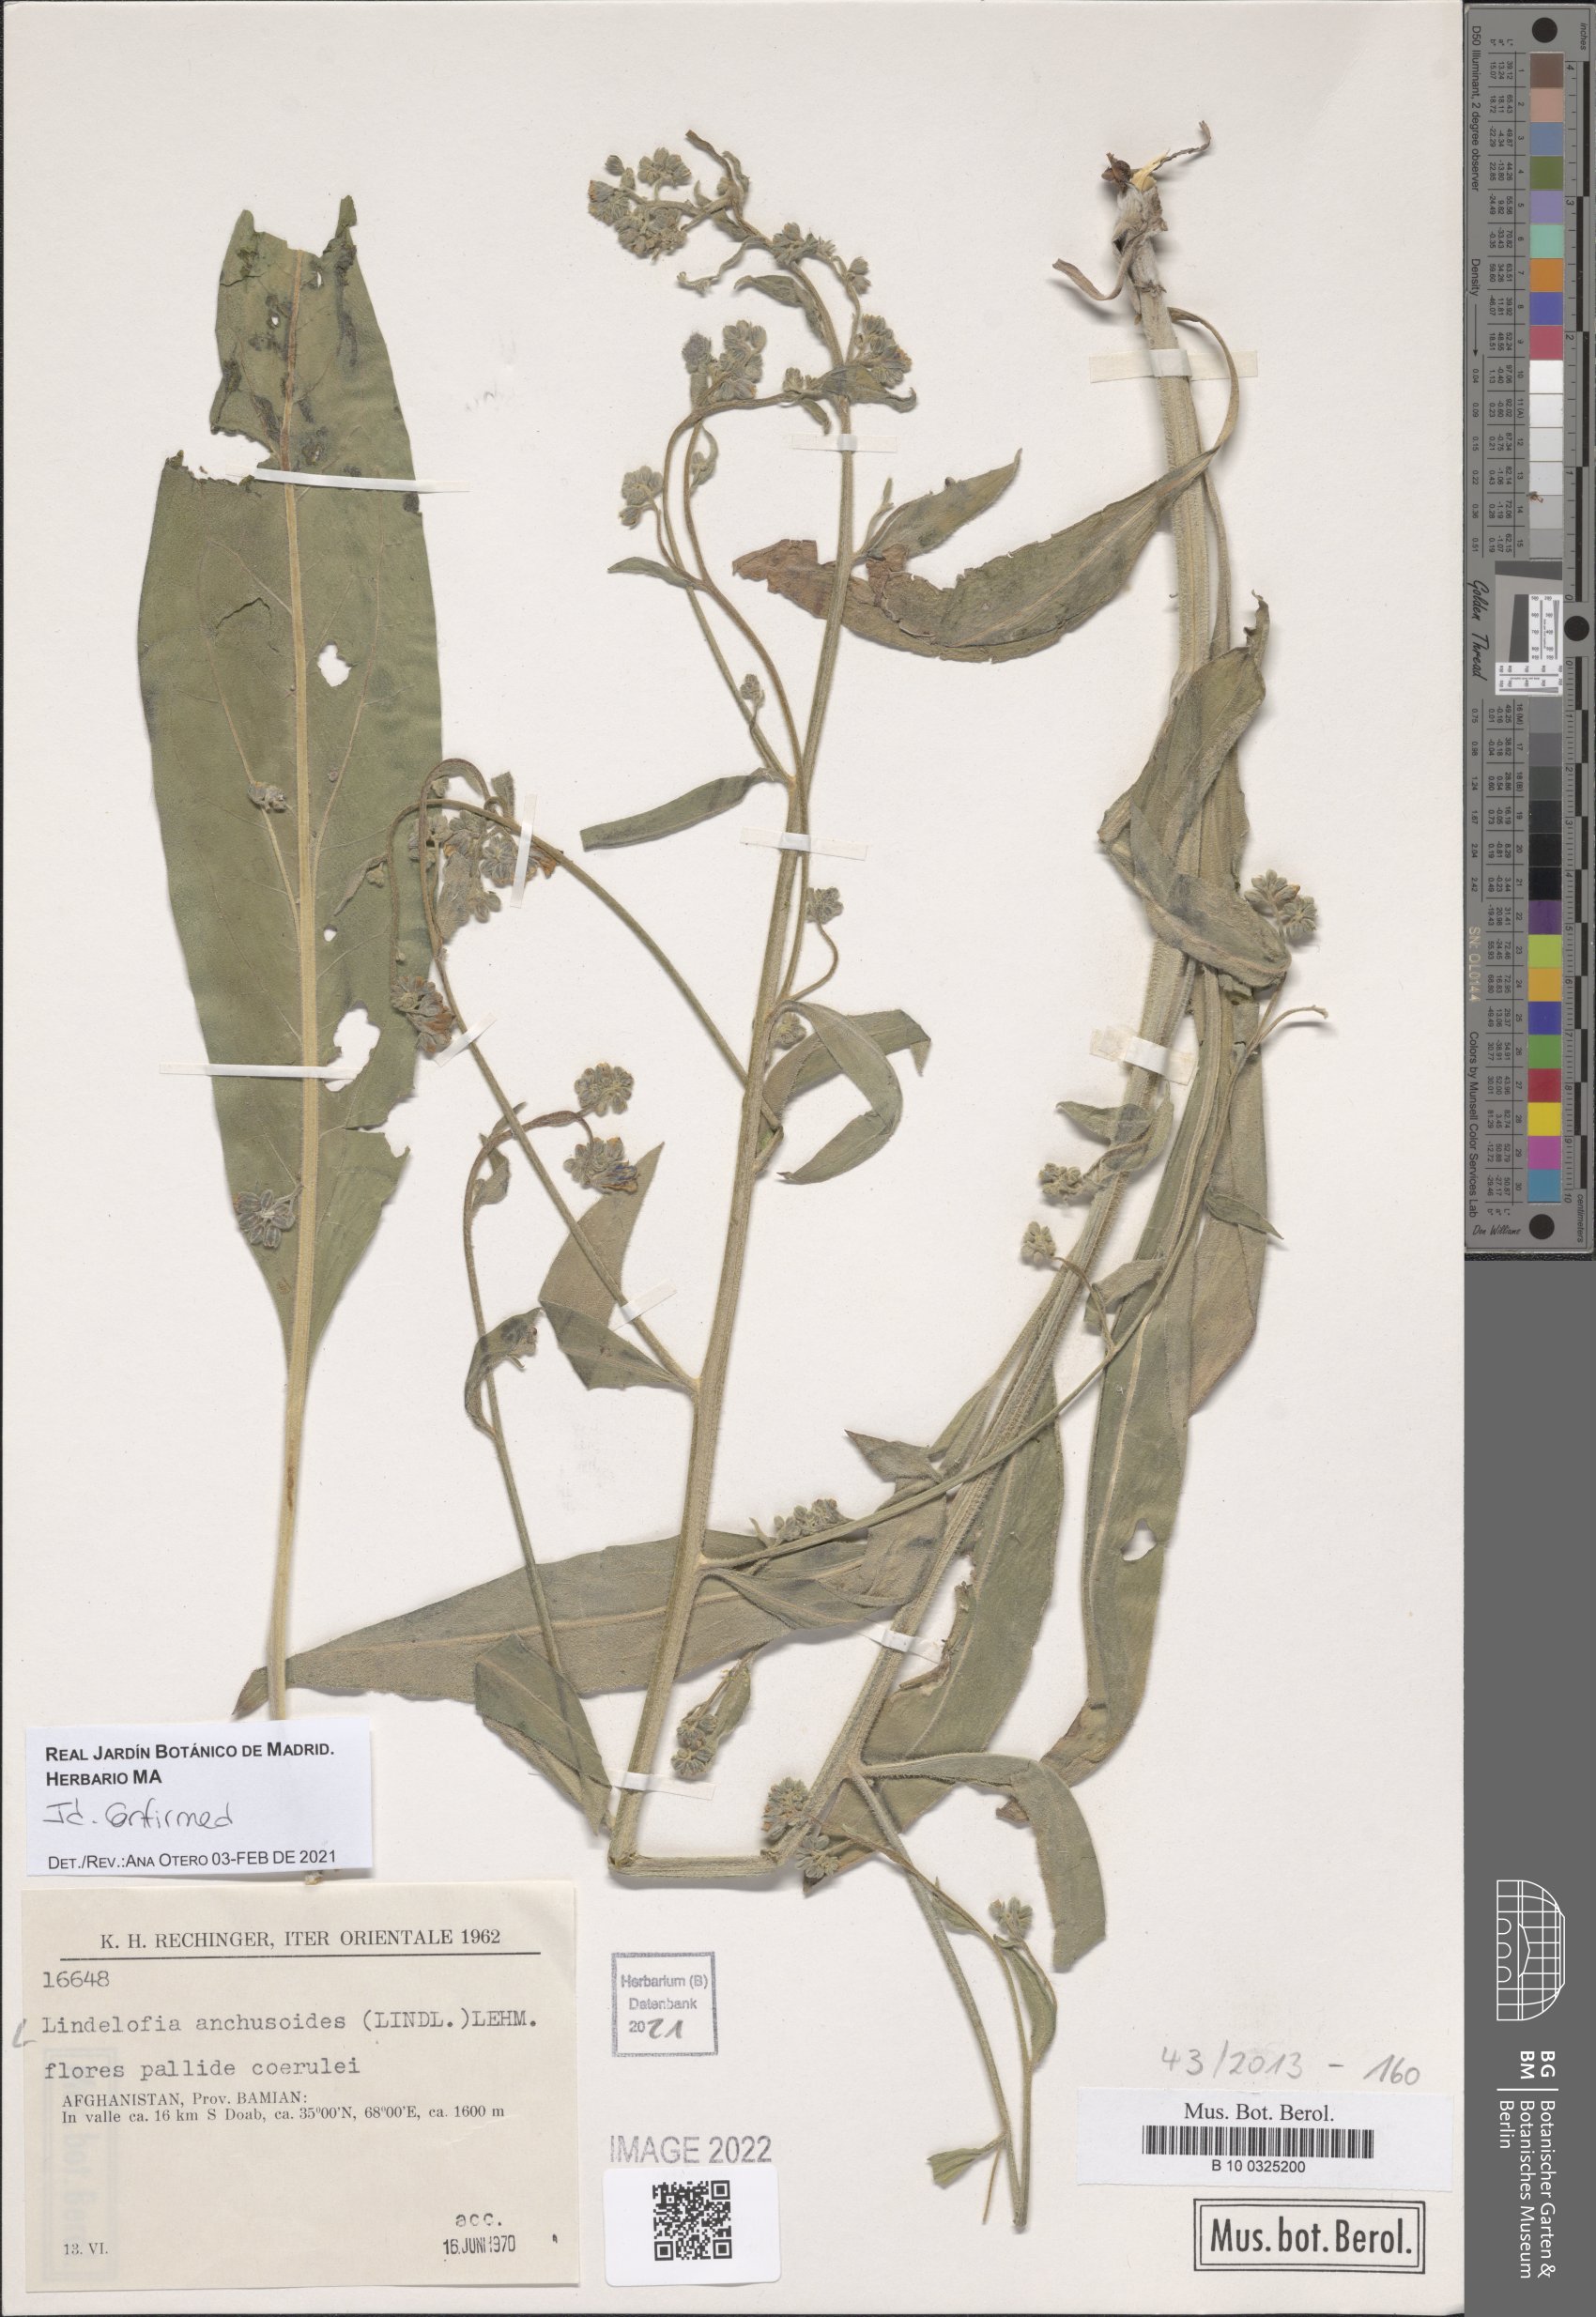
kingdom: Plantae
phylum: Tracheophyta
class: Magnoliopsida
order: Boraginales
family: Boraginaceae
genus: Lindelofia
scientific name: Lindelofia anchusoides
